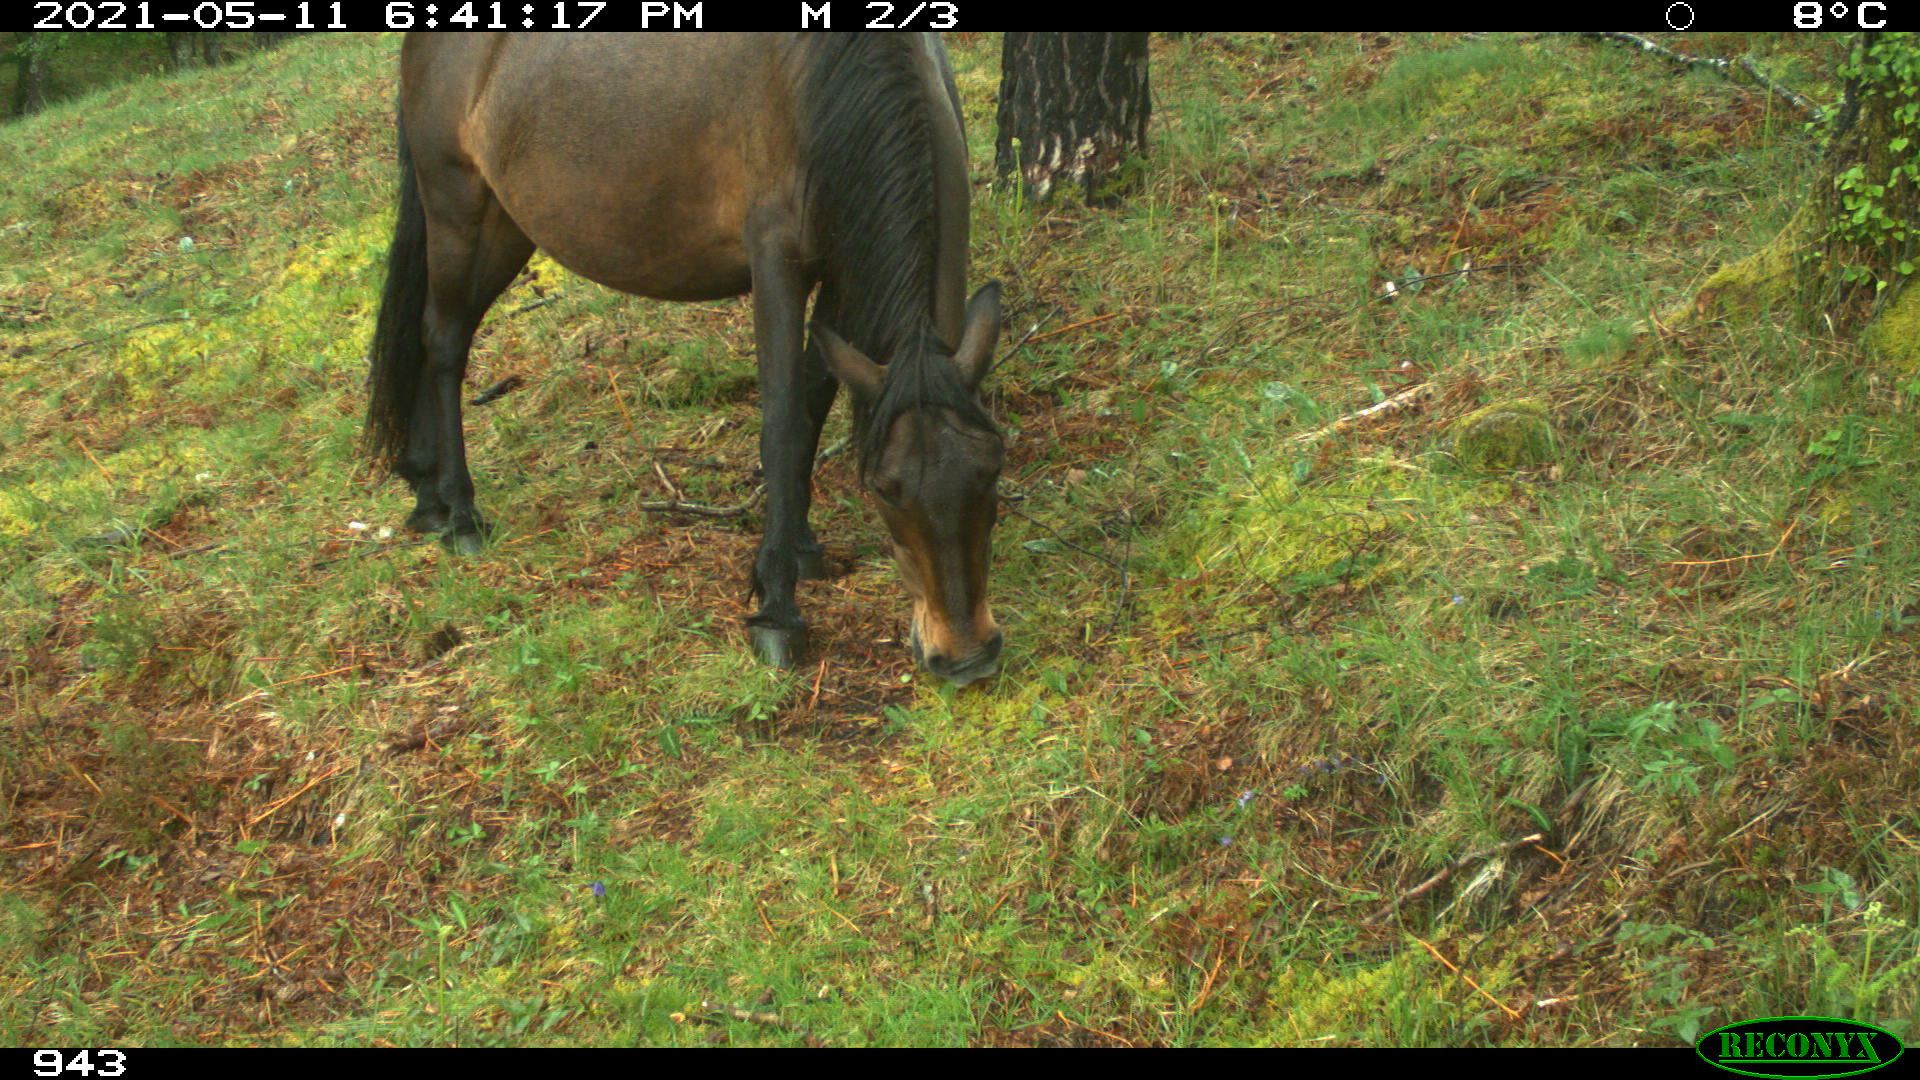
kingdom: Animalia
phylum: Chordata
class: Mammalia
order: Perissodactyla
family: Equidae
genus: Equus
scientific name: Equus caballus
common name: Horse
